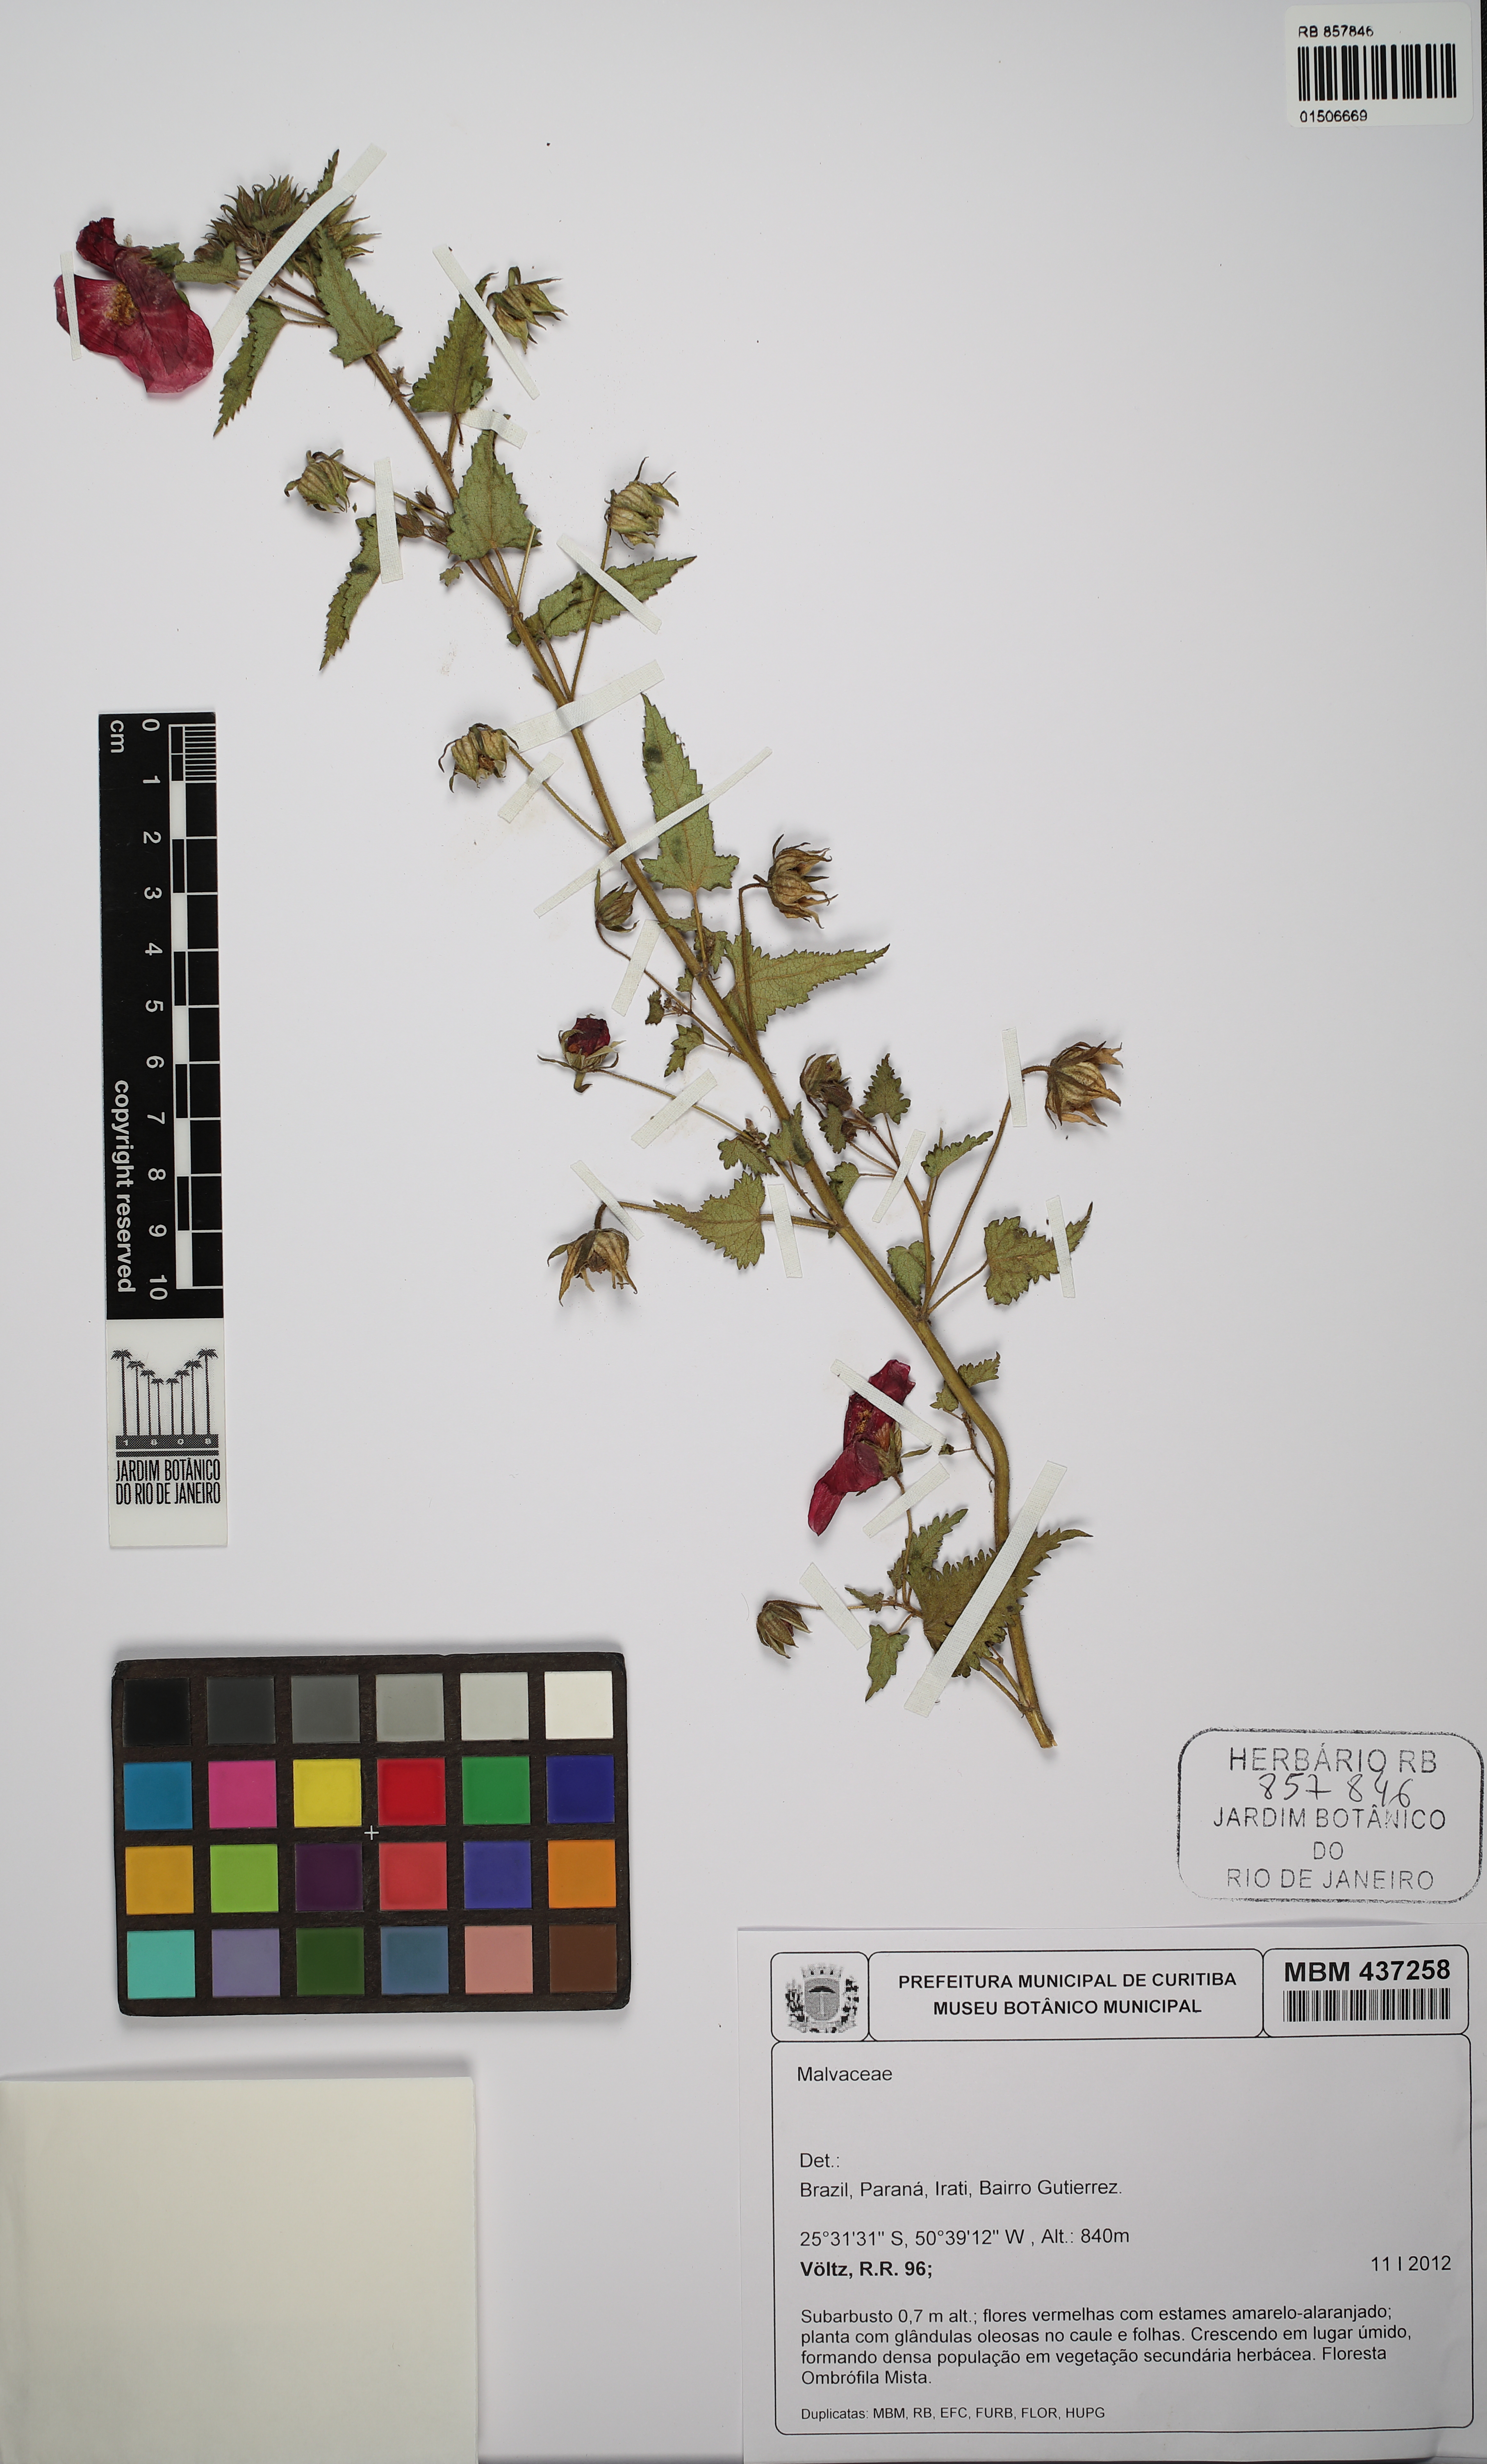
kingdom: Plantae
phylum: Tracheophyta
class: Magnoliopsida
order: Malvales
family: Malvaceae
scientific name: Malvaceae
